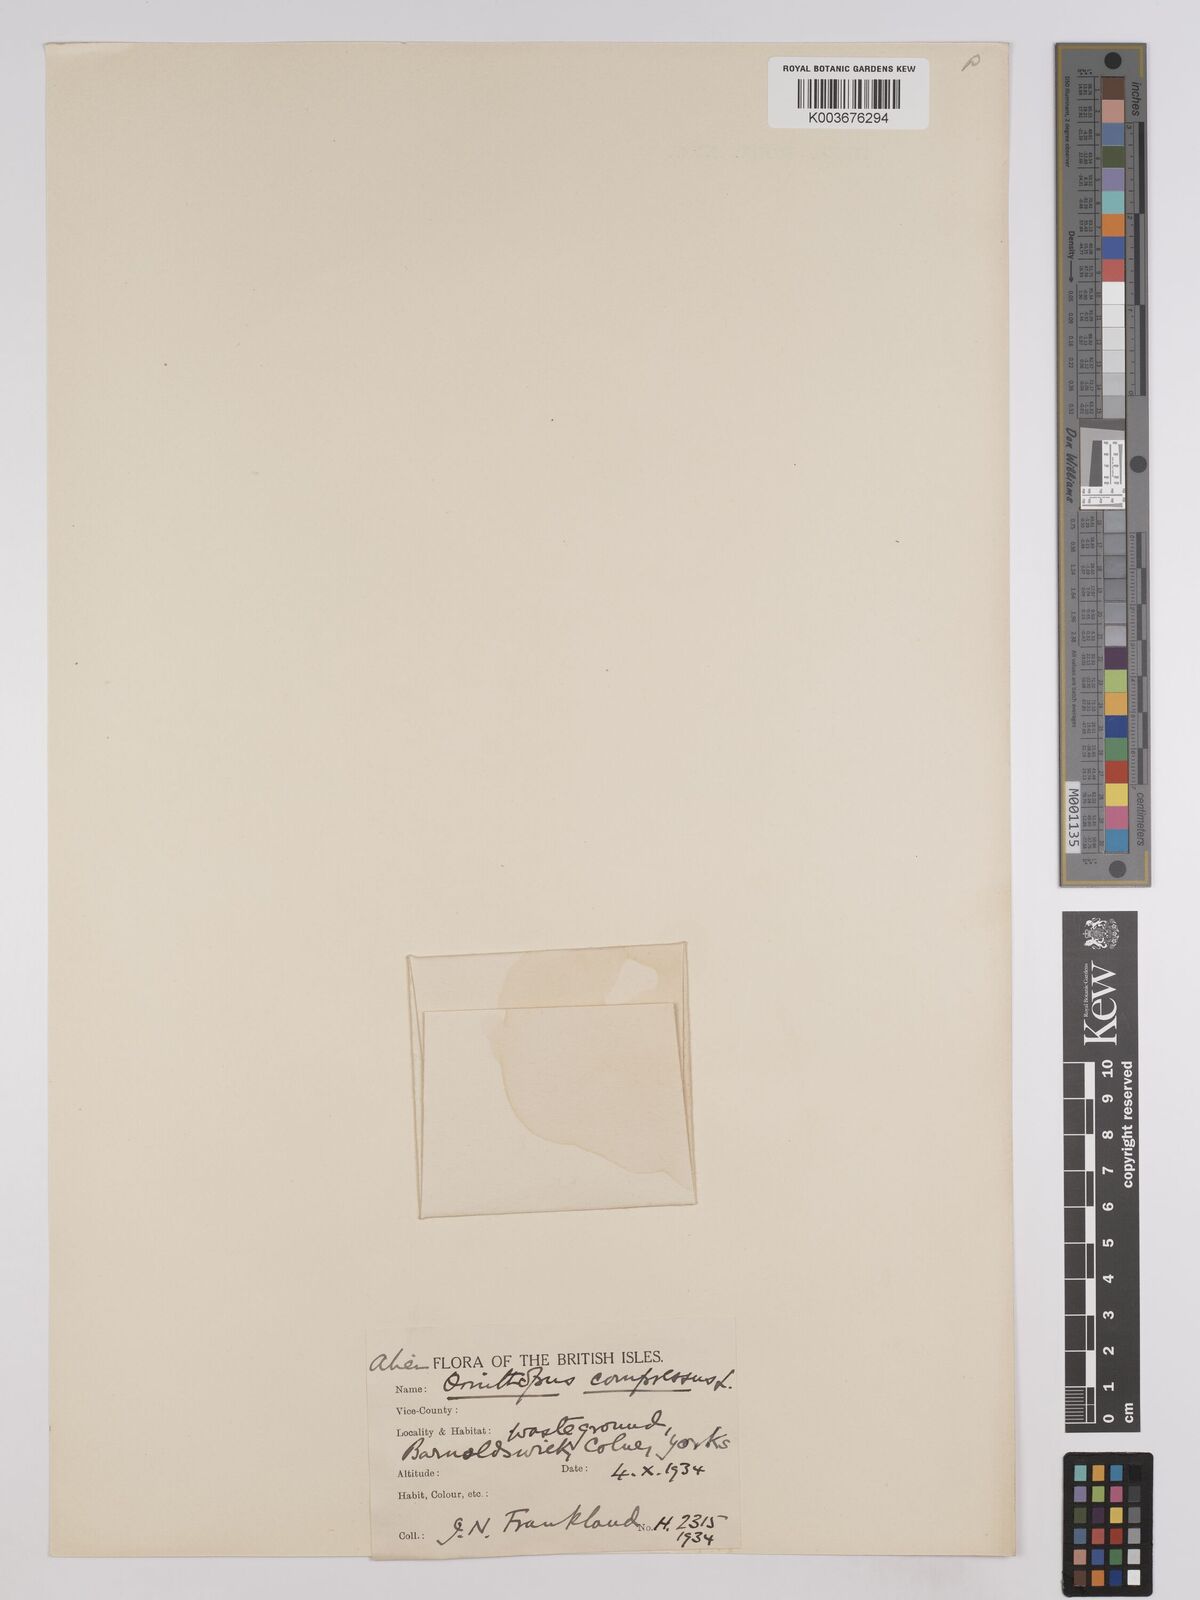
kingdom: Plantae
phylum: Tracheophyta
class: Magnoliopsida
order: Fabales
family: Fabaceae
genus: Ornithopus
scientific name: Ornithopus compressus
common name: Yellow serradella
